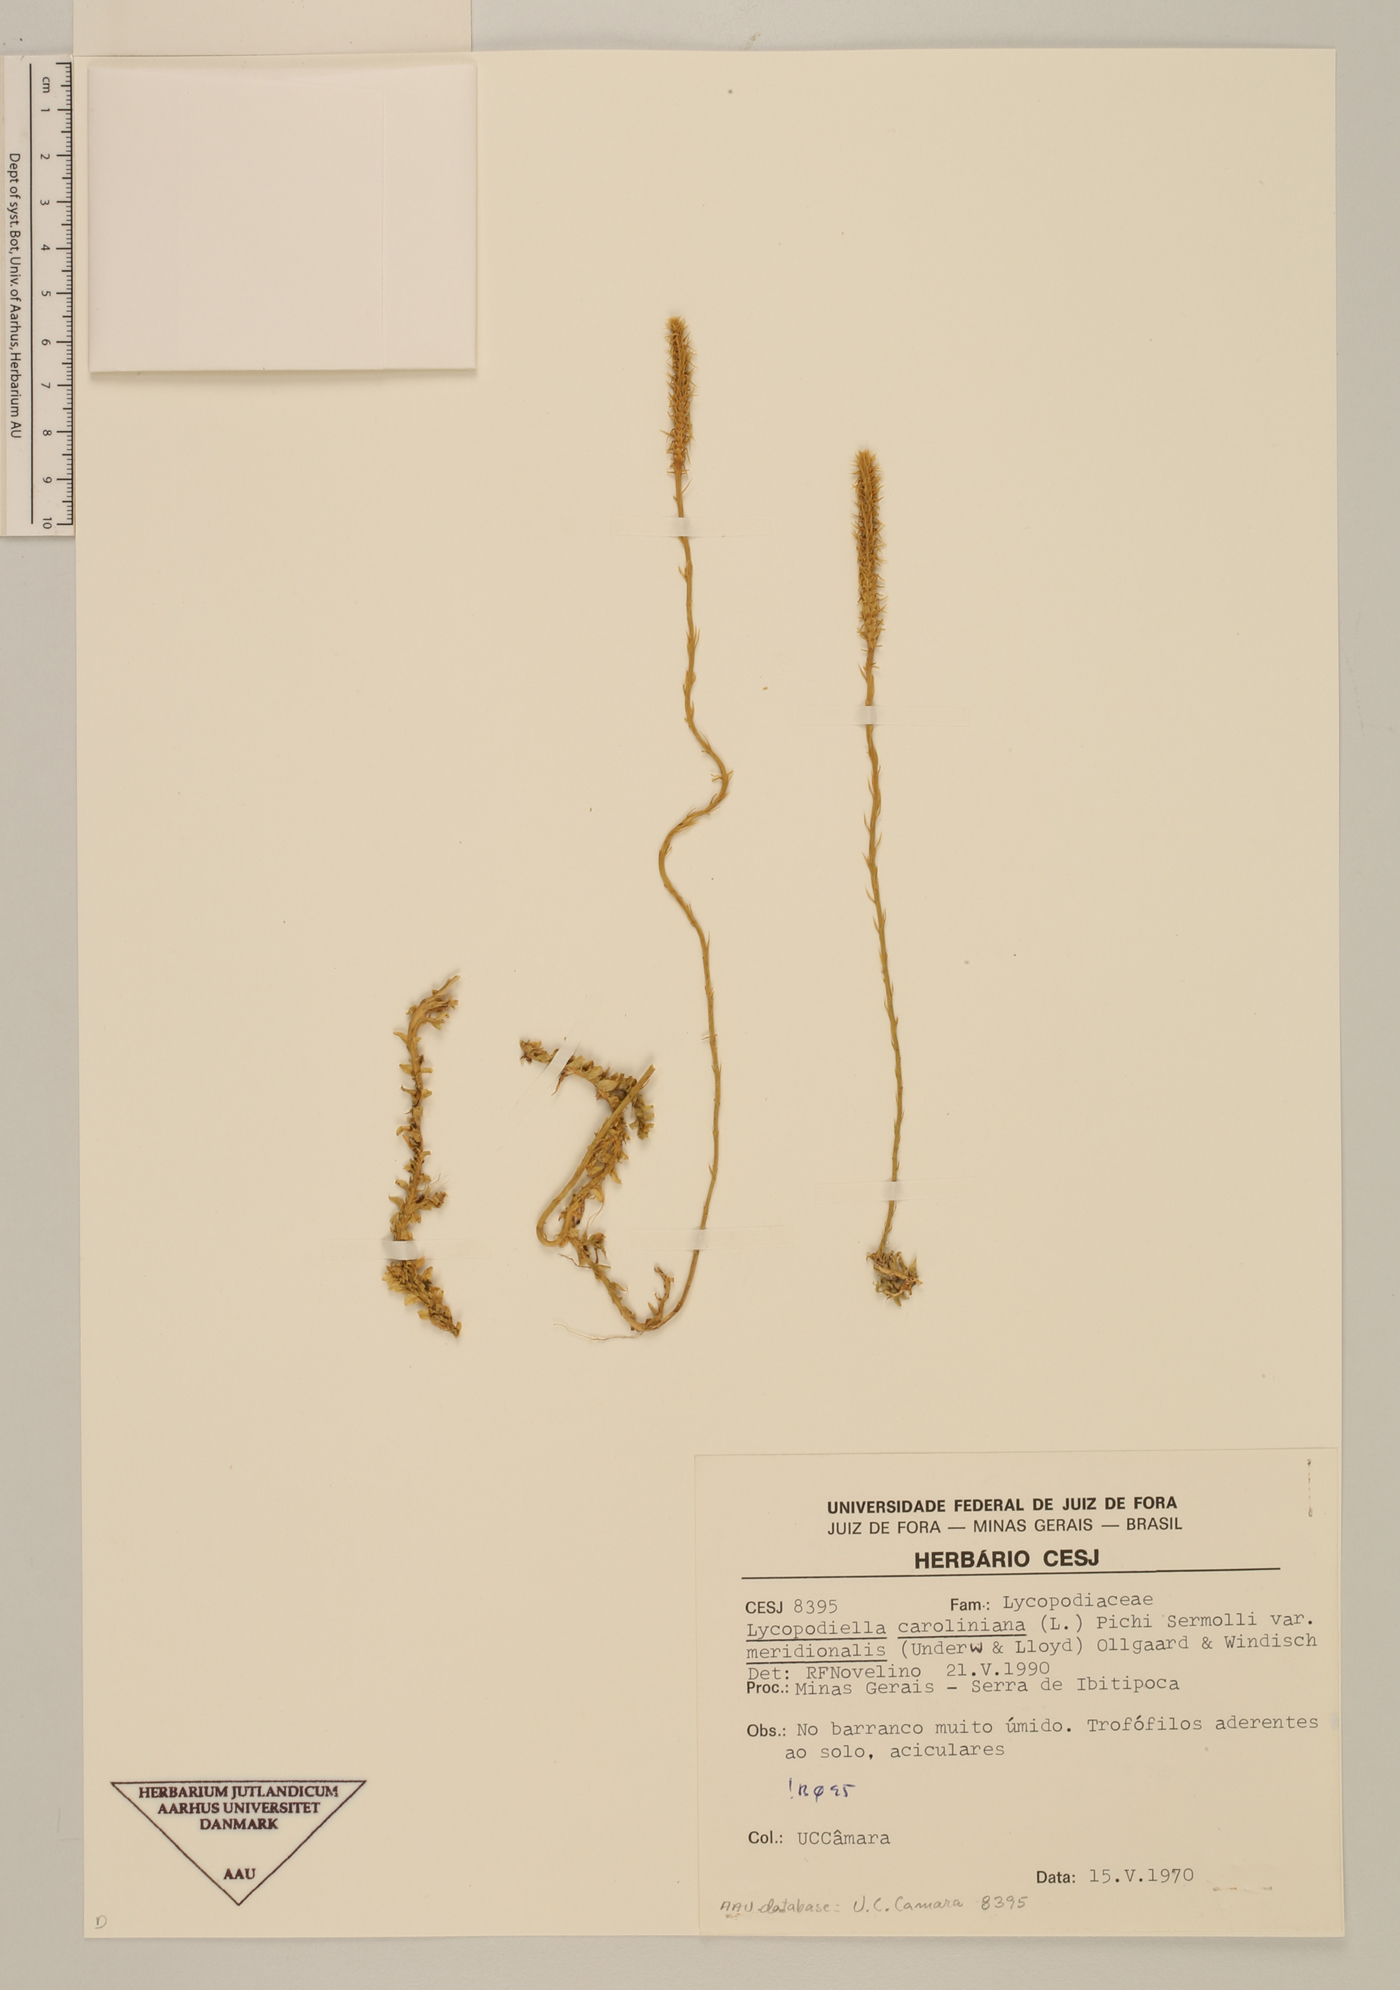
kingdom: Plantae
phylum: Tracheophyta
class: Lycopodiopsida
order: Lycopodiales
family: Lycopodiaceae
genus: Pseudolycopodiella
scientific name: Pseudolycopodiella carnosa
